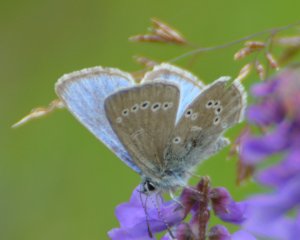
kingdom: Animalia
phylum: Arthropoda
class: Insecta
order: Lepidoptera
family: Lycaenidae
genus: Glaucopsyche
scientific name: Glaucopsyche lygdamus
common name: Silvery Blue
